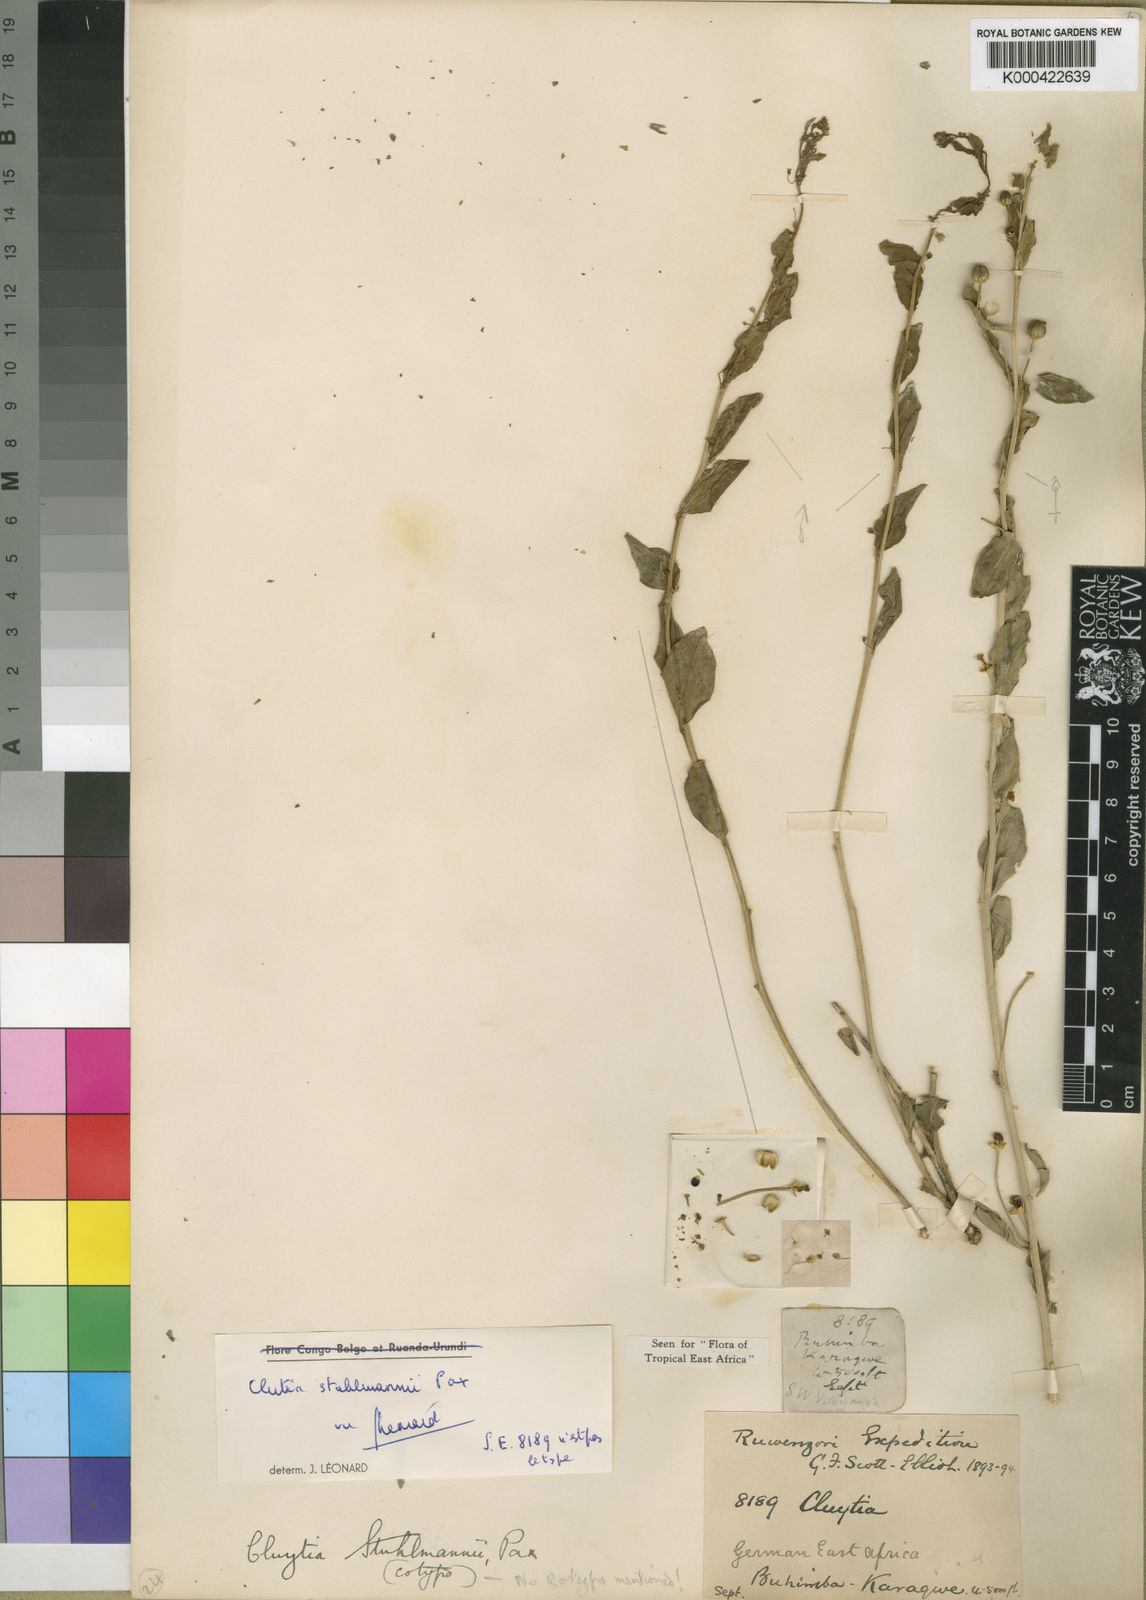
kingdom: Plantae
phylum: Tracheophyta
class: Magnoliopsida
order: Malpighiales
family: Peraceae
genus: Clutia
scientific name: Clutia stuhlmannii
